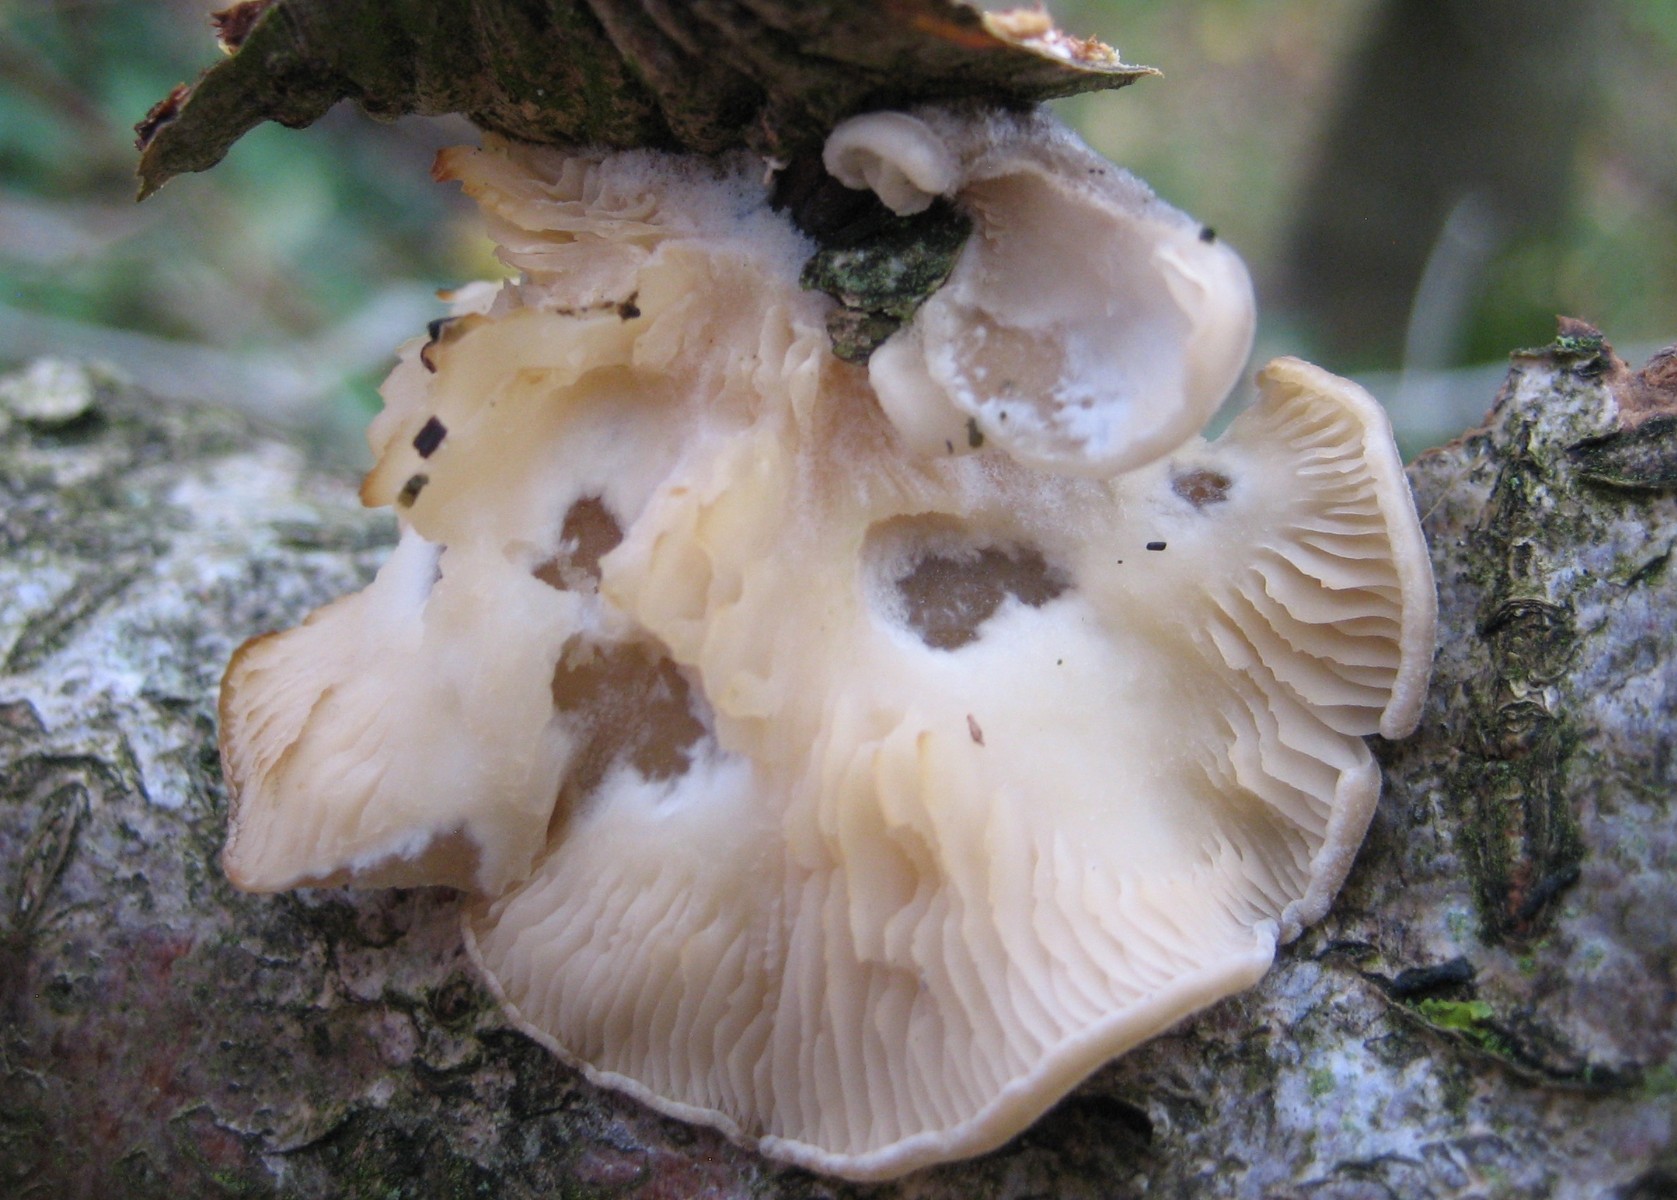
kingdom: Fungi
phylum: Basidiomycota
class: Agaricomycetes
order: Agaricales
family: Pleurotaceae
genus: Hohenbuehelia
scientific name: Hohenbuehelia
